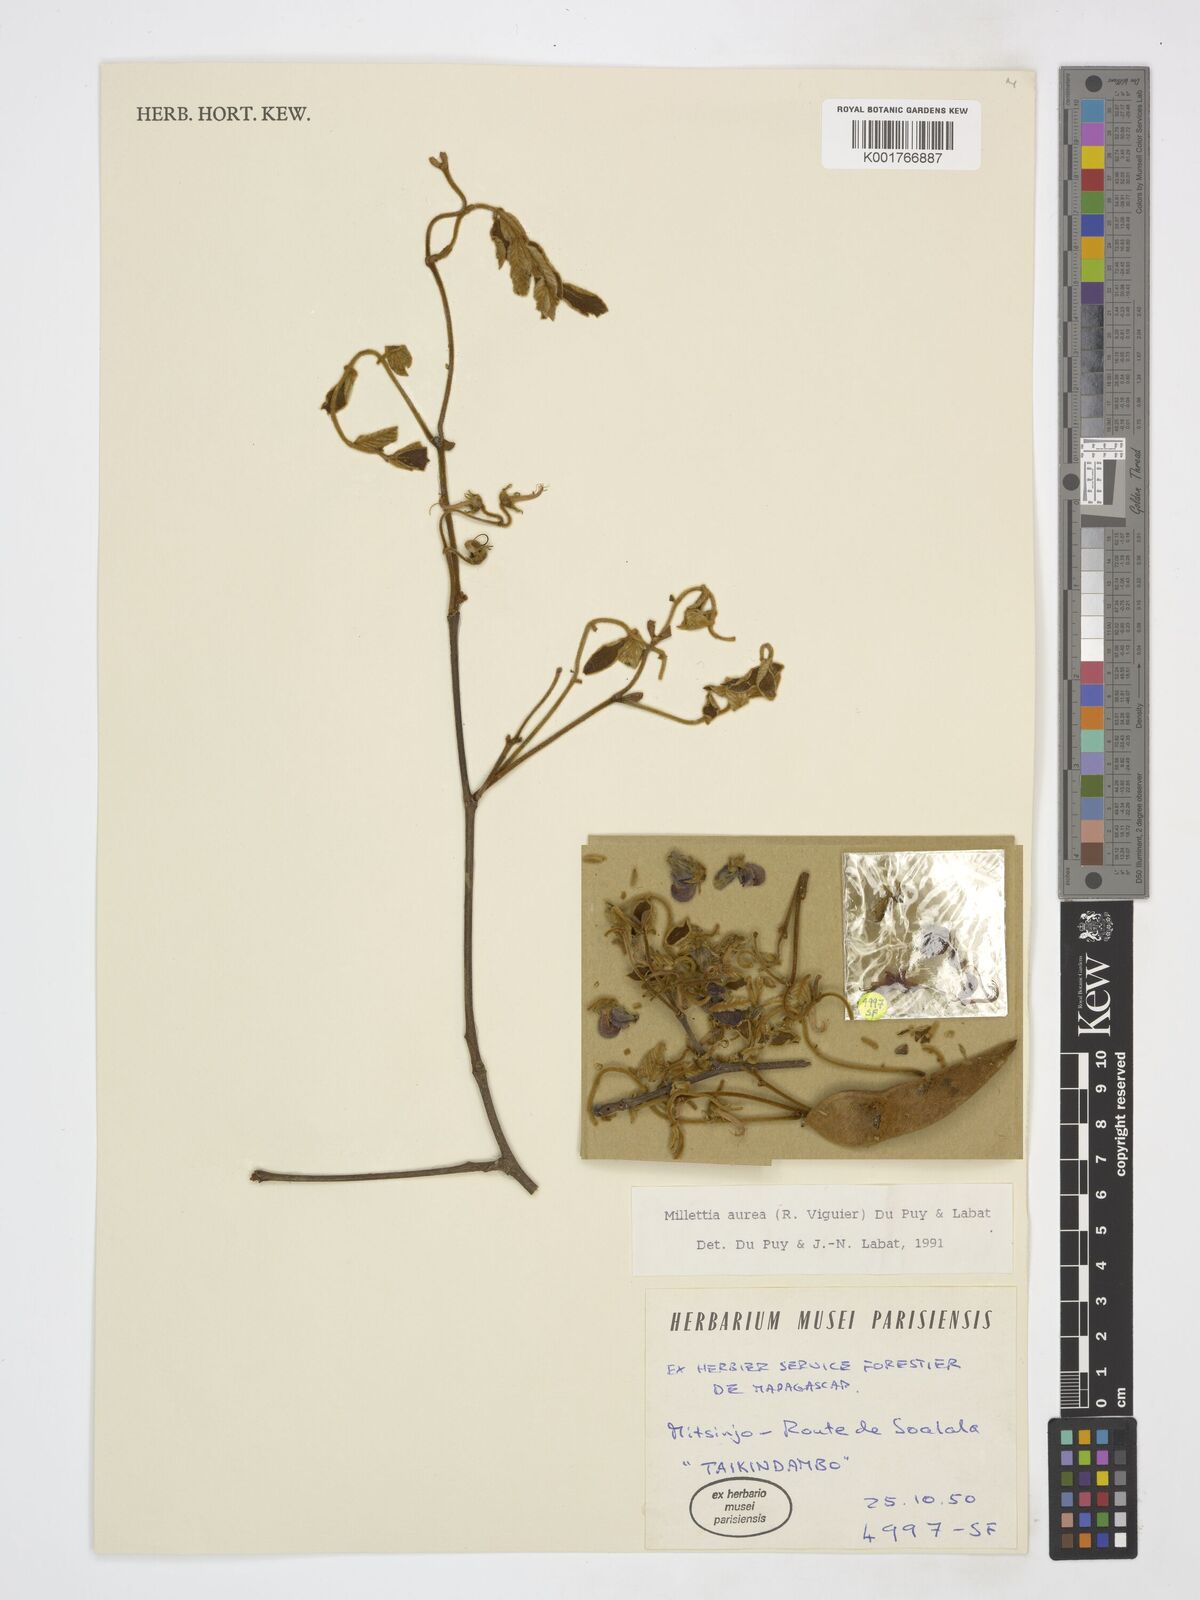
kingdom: Plantae
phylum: Tracheophyta
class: Magnoliopsida
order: Fabales
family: Fabaceae
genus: Millettia
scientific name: Millettia aurea
